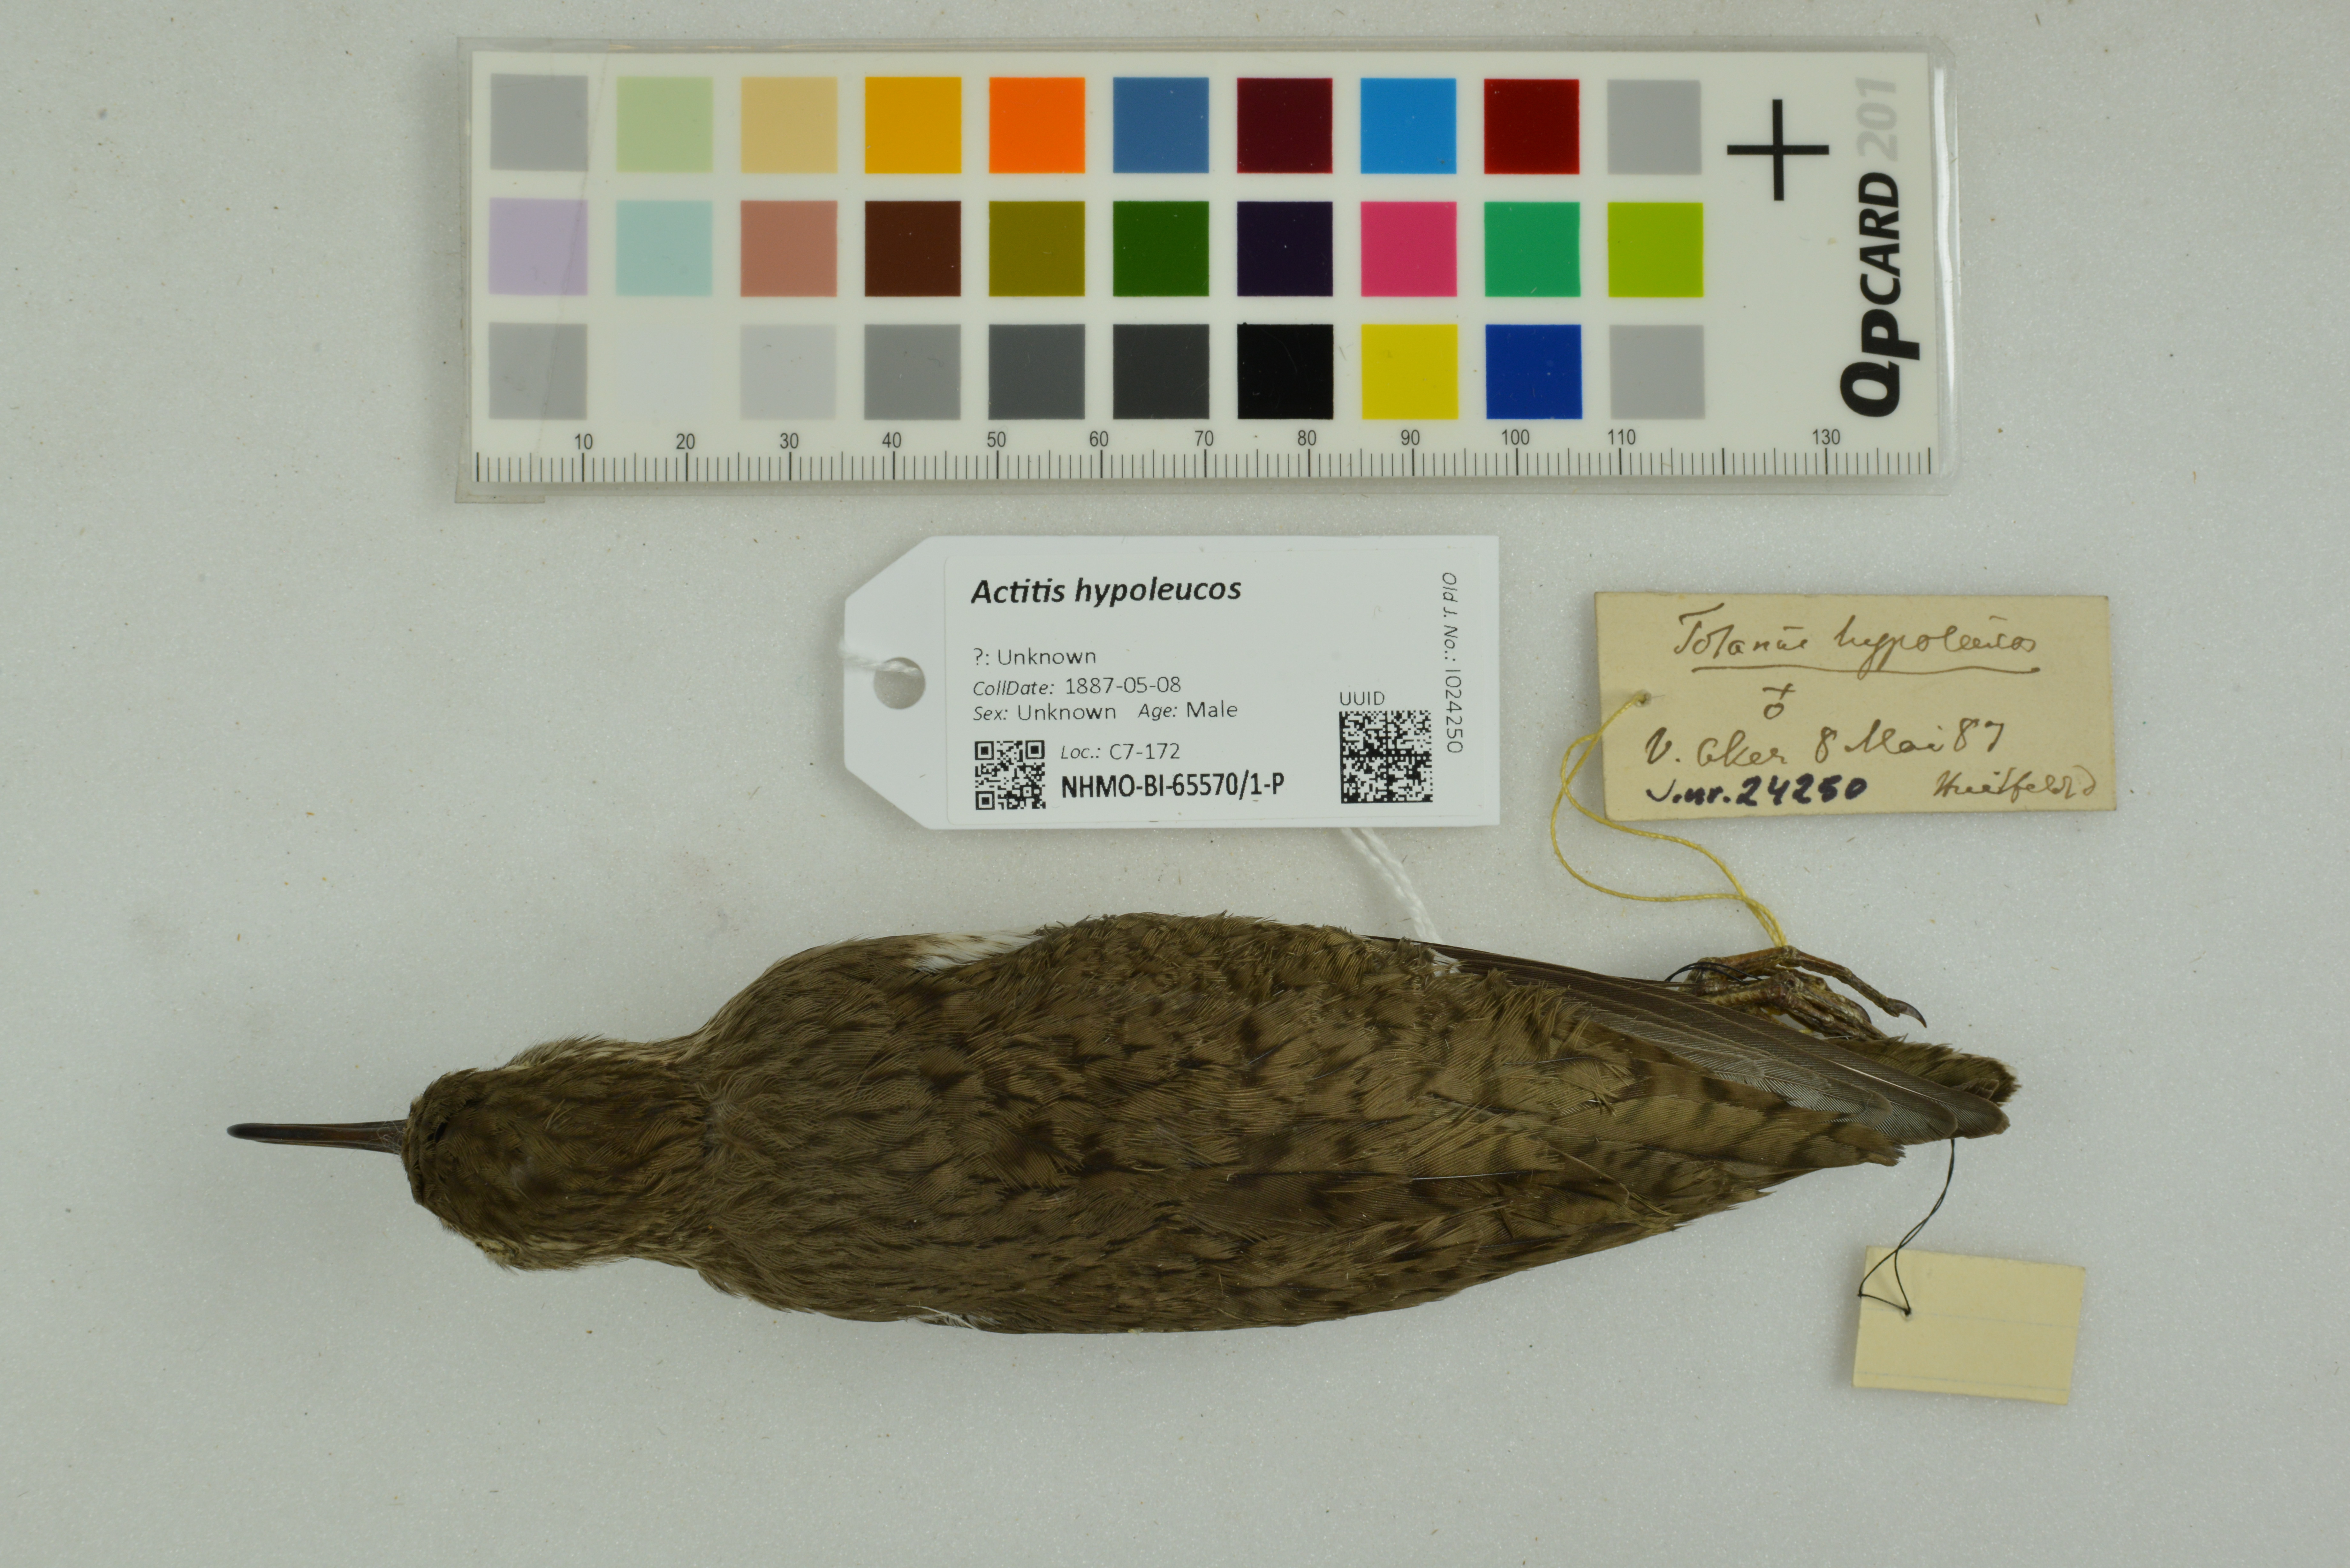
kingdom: Animalia
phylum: Chordata
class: Aves
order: Charadriiformes
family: Scolopacidae
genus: Actitis
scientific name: Actitis hypoleucos
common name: Common sandpiper
